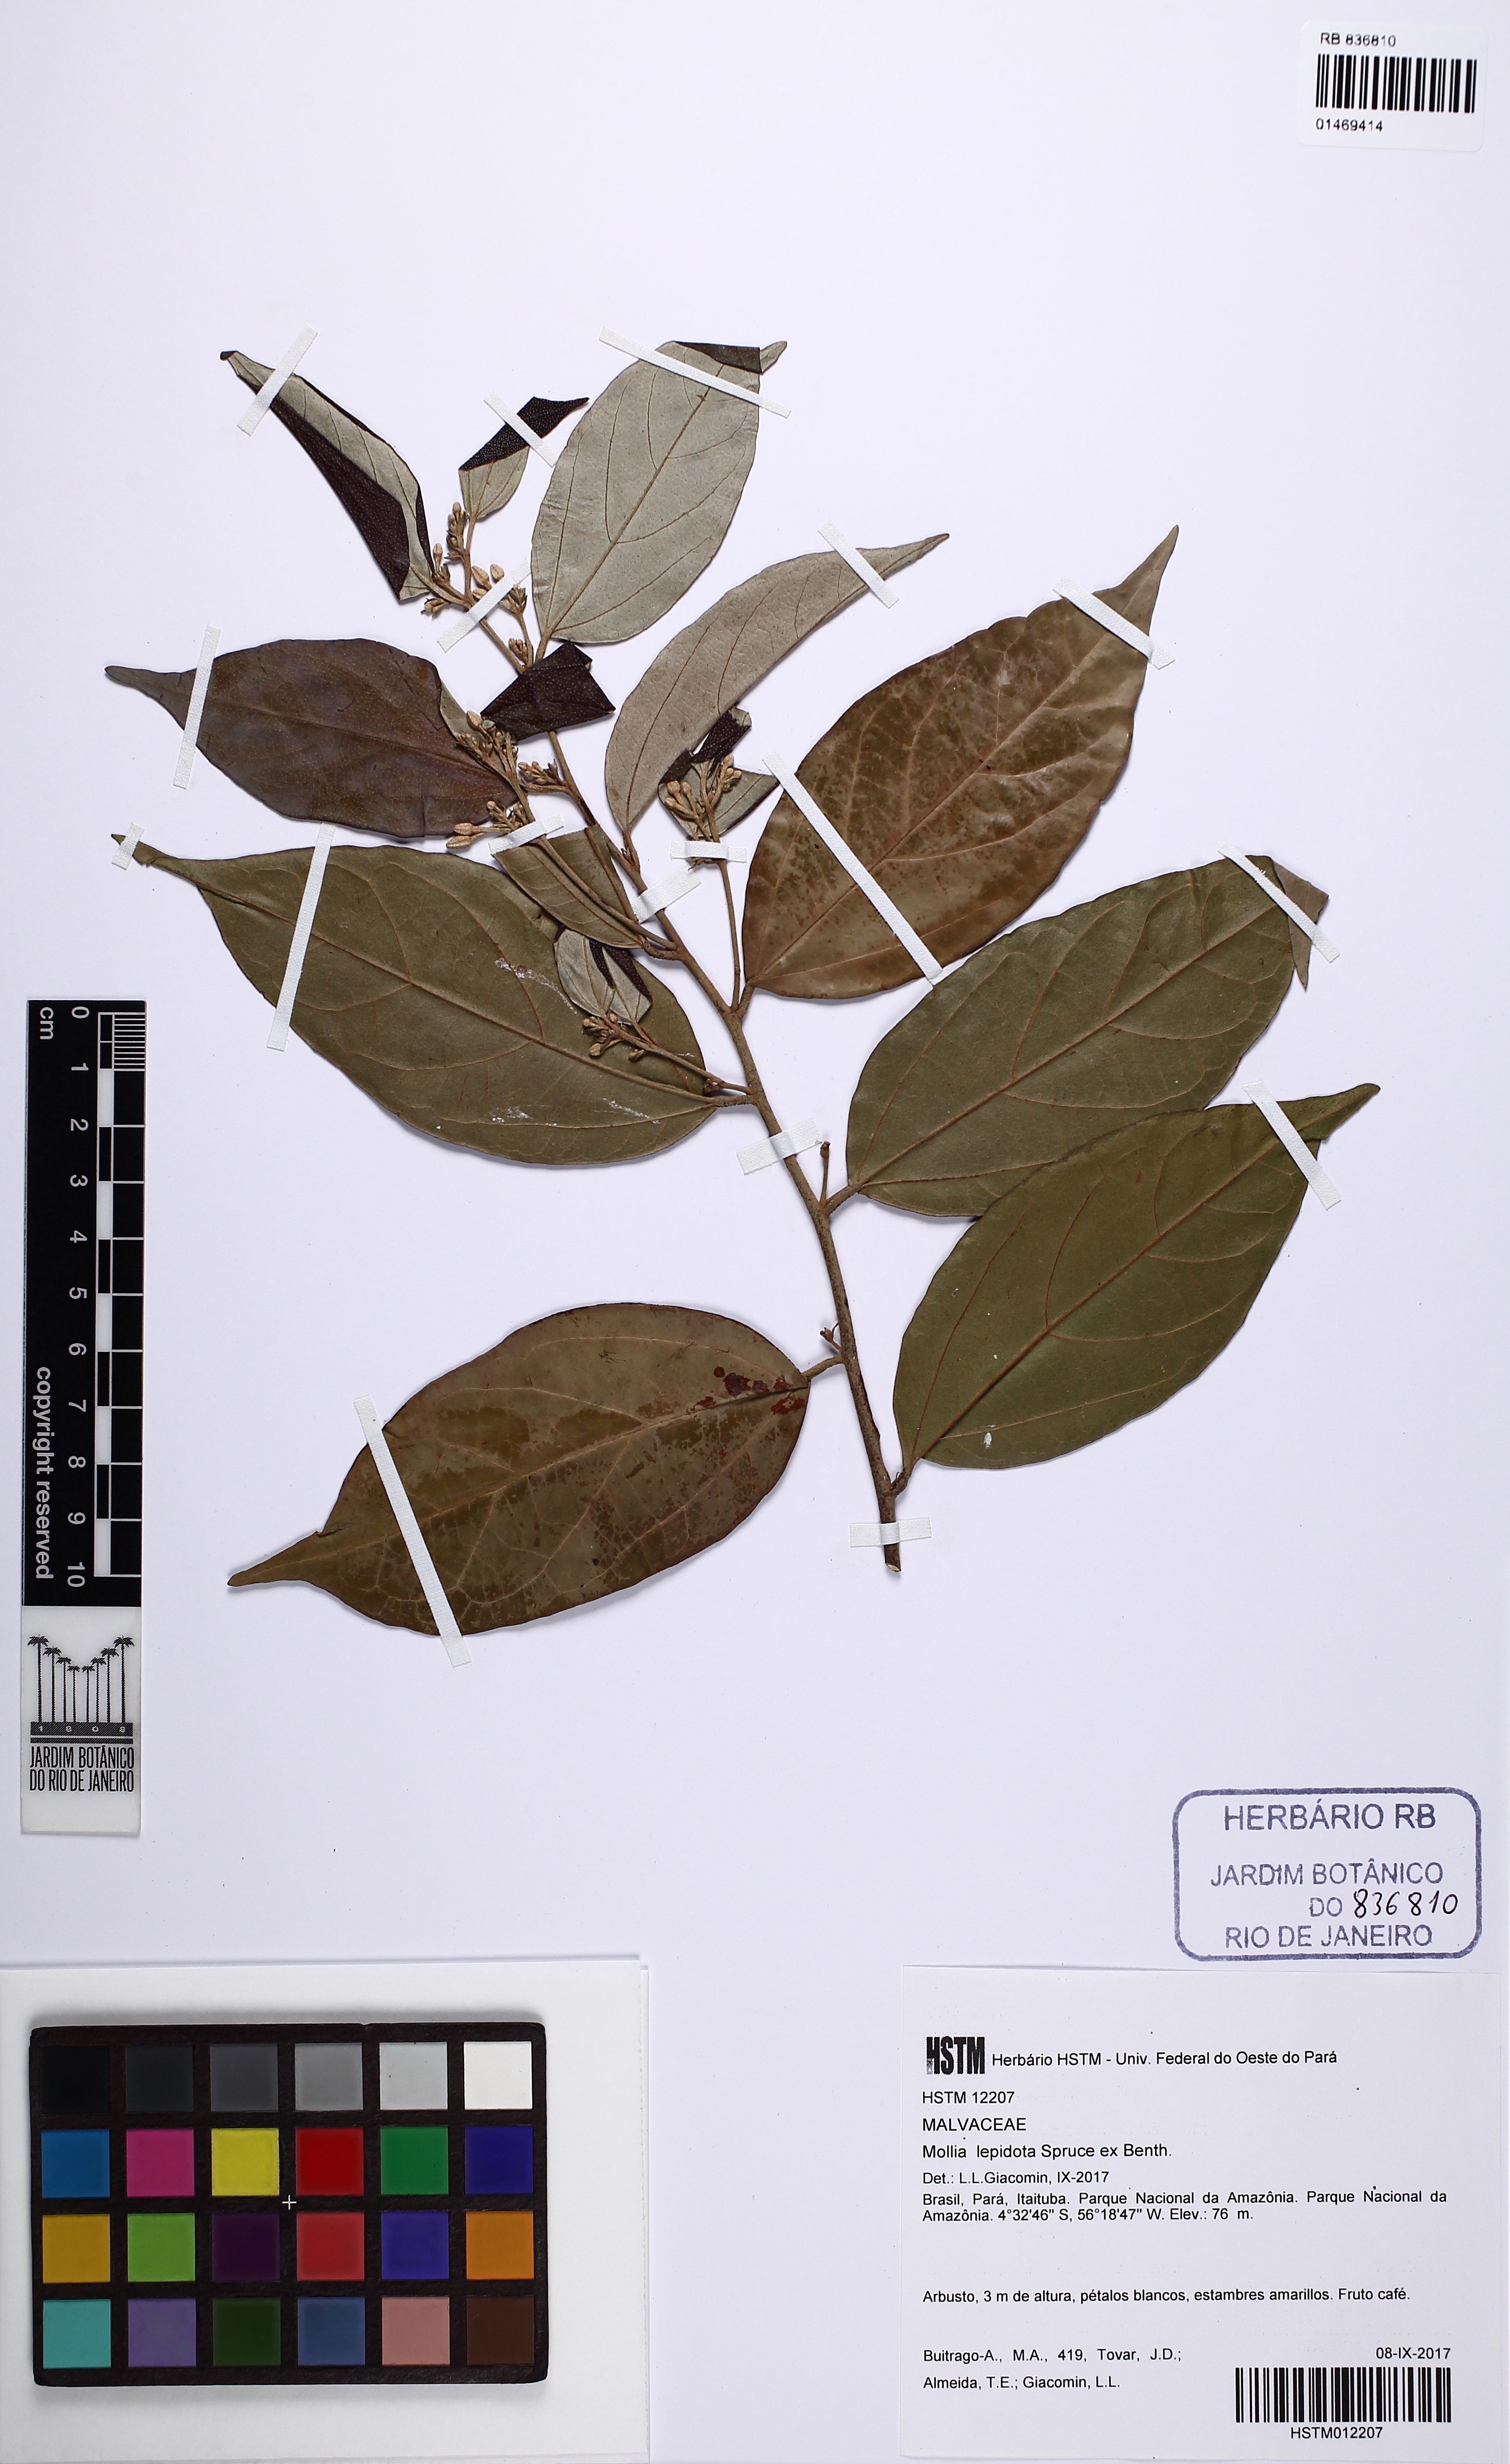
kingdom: Plantae
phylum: Tracheophyta
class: Magnoliopsida
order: Malvales
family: Malvaceae
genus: Mollia
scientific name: Mollia lepidota
